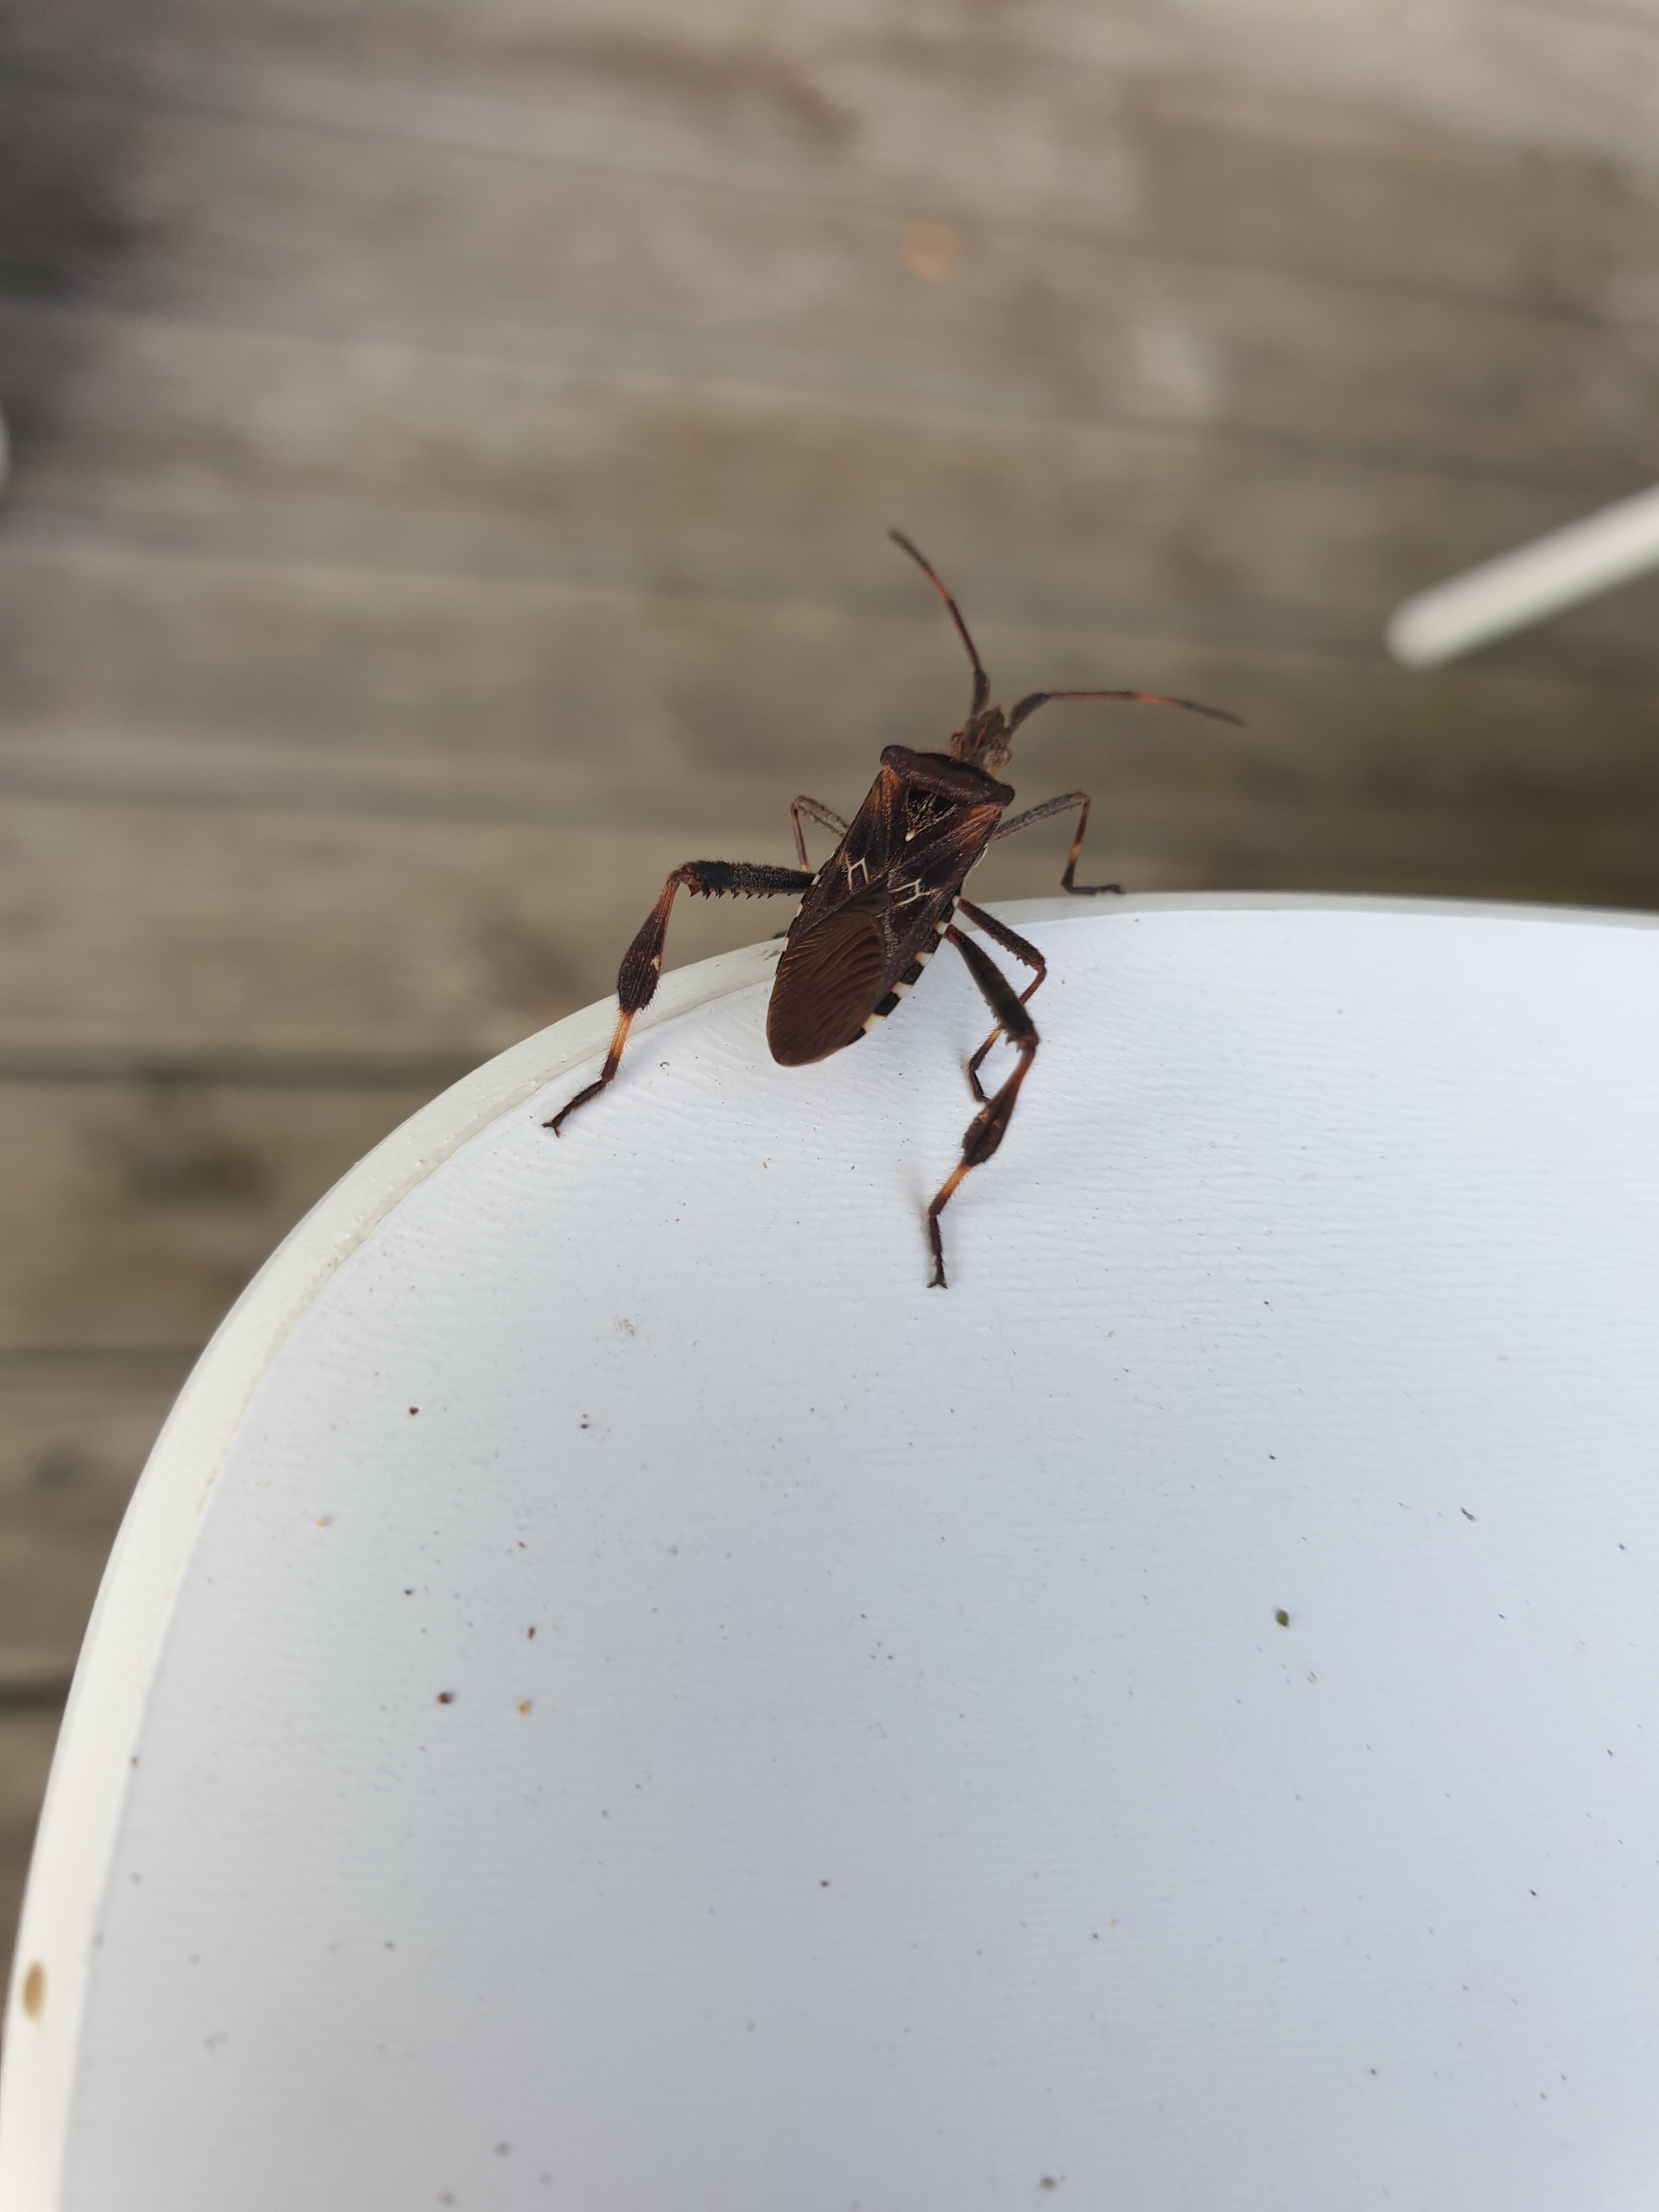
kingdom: Animalia
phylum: Arthropoda
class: Insecta
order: Hemiptera
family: Coreidae
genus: Leptoglossus
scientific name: Leptoglossus occidentalis
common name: Amerikansk fyrretæge
